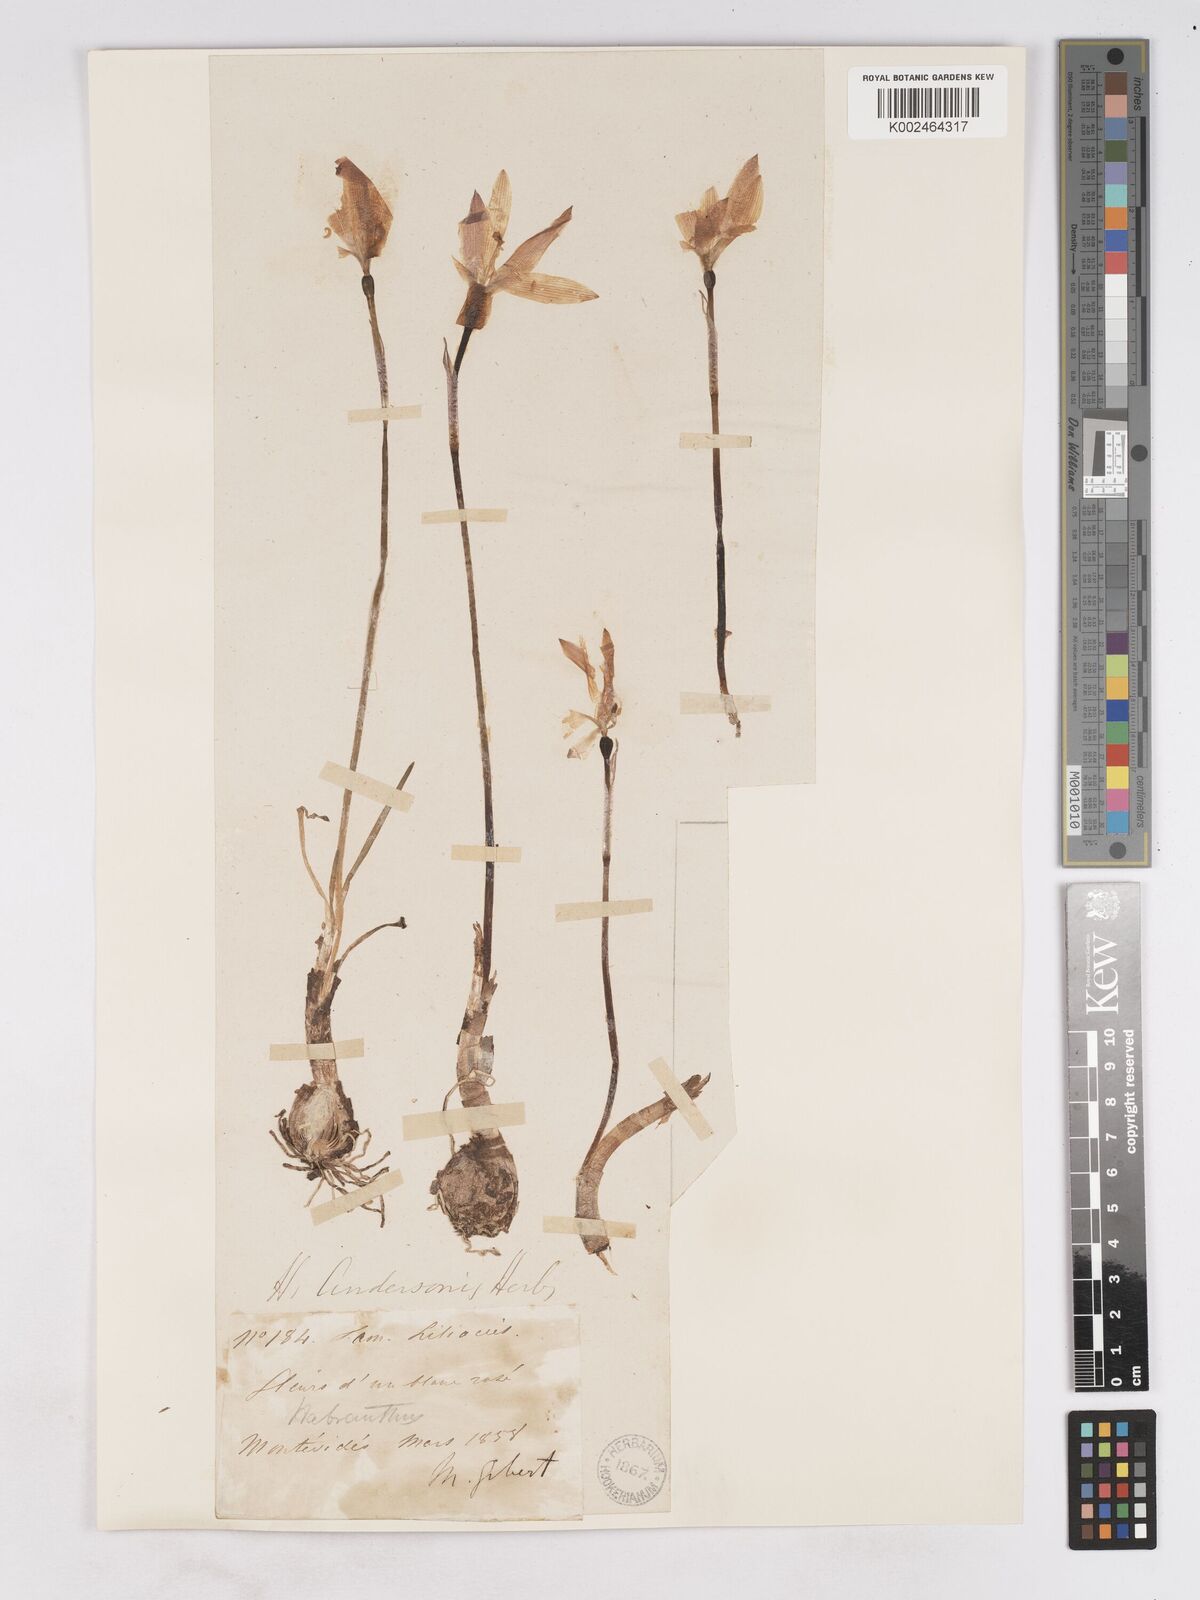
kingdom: Plantae
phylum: Tracheophyta
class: Liliopsida
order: Asparagales
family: Amaryllidaceae
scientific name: Amaryllidaceae
